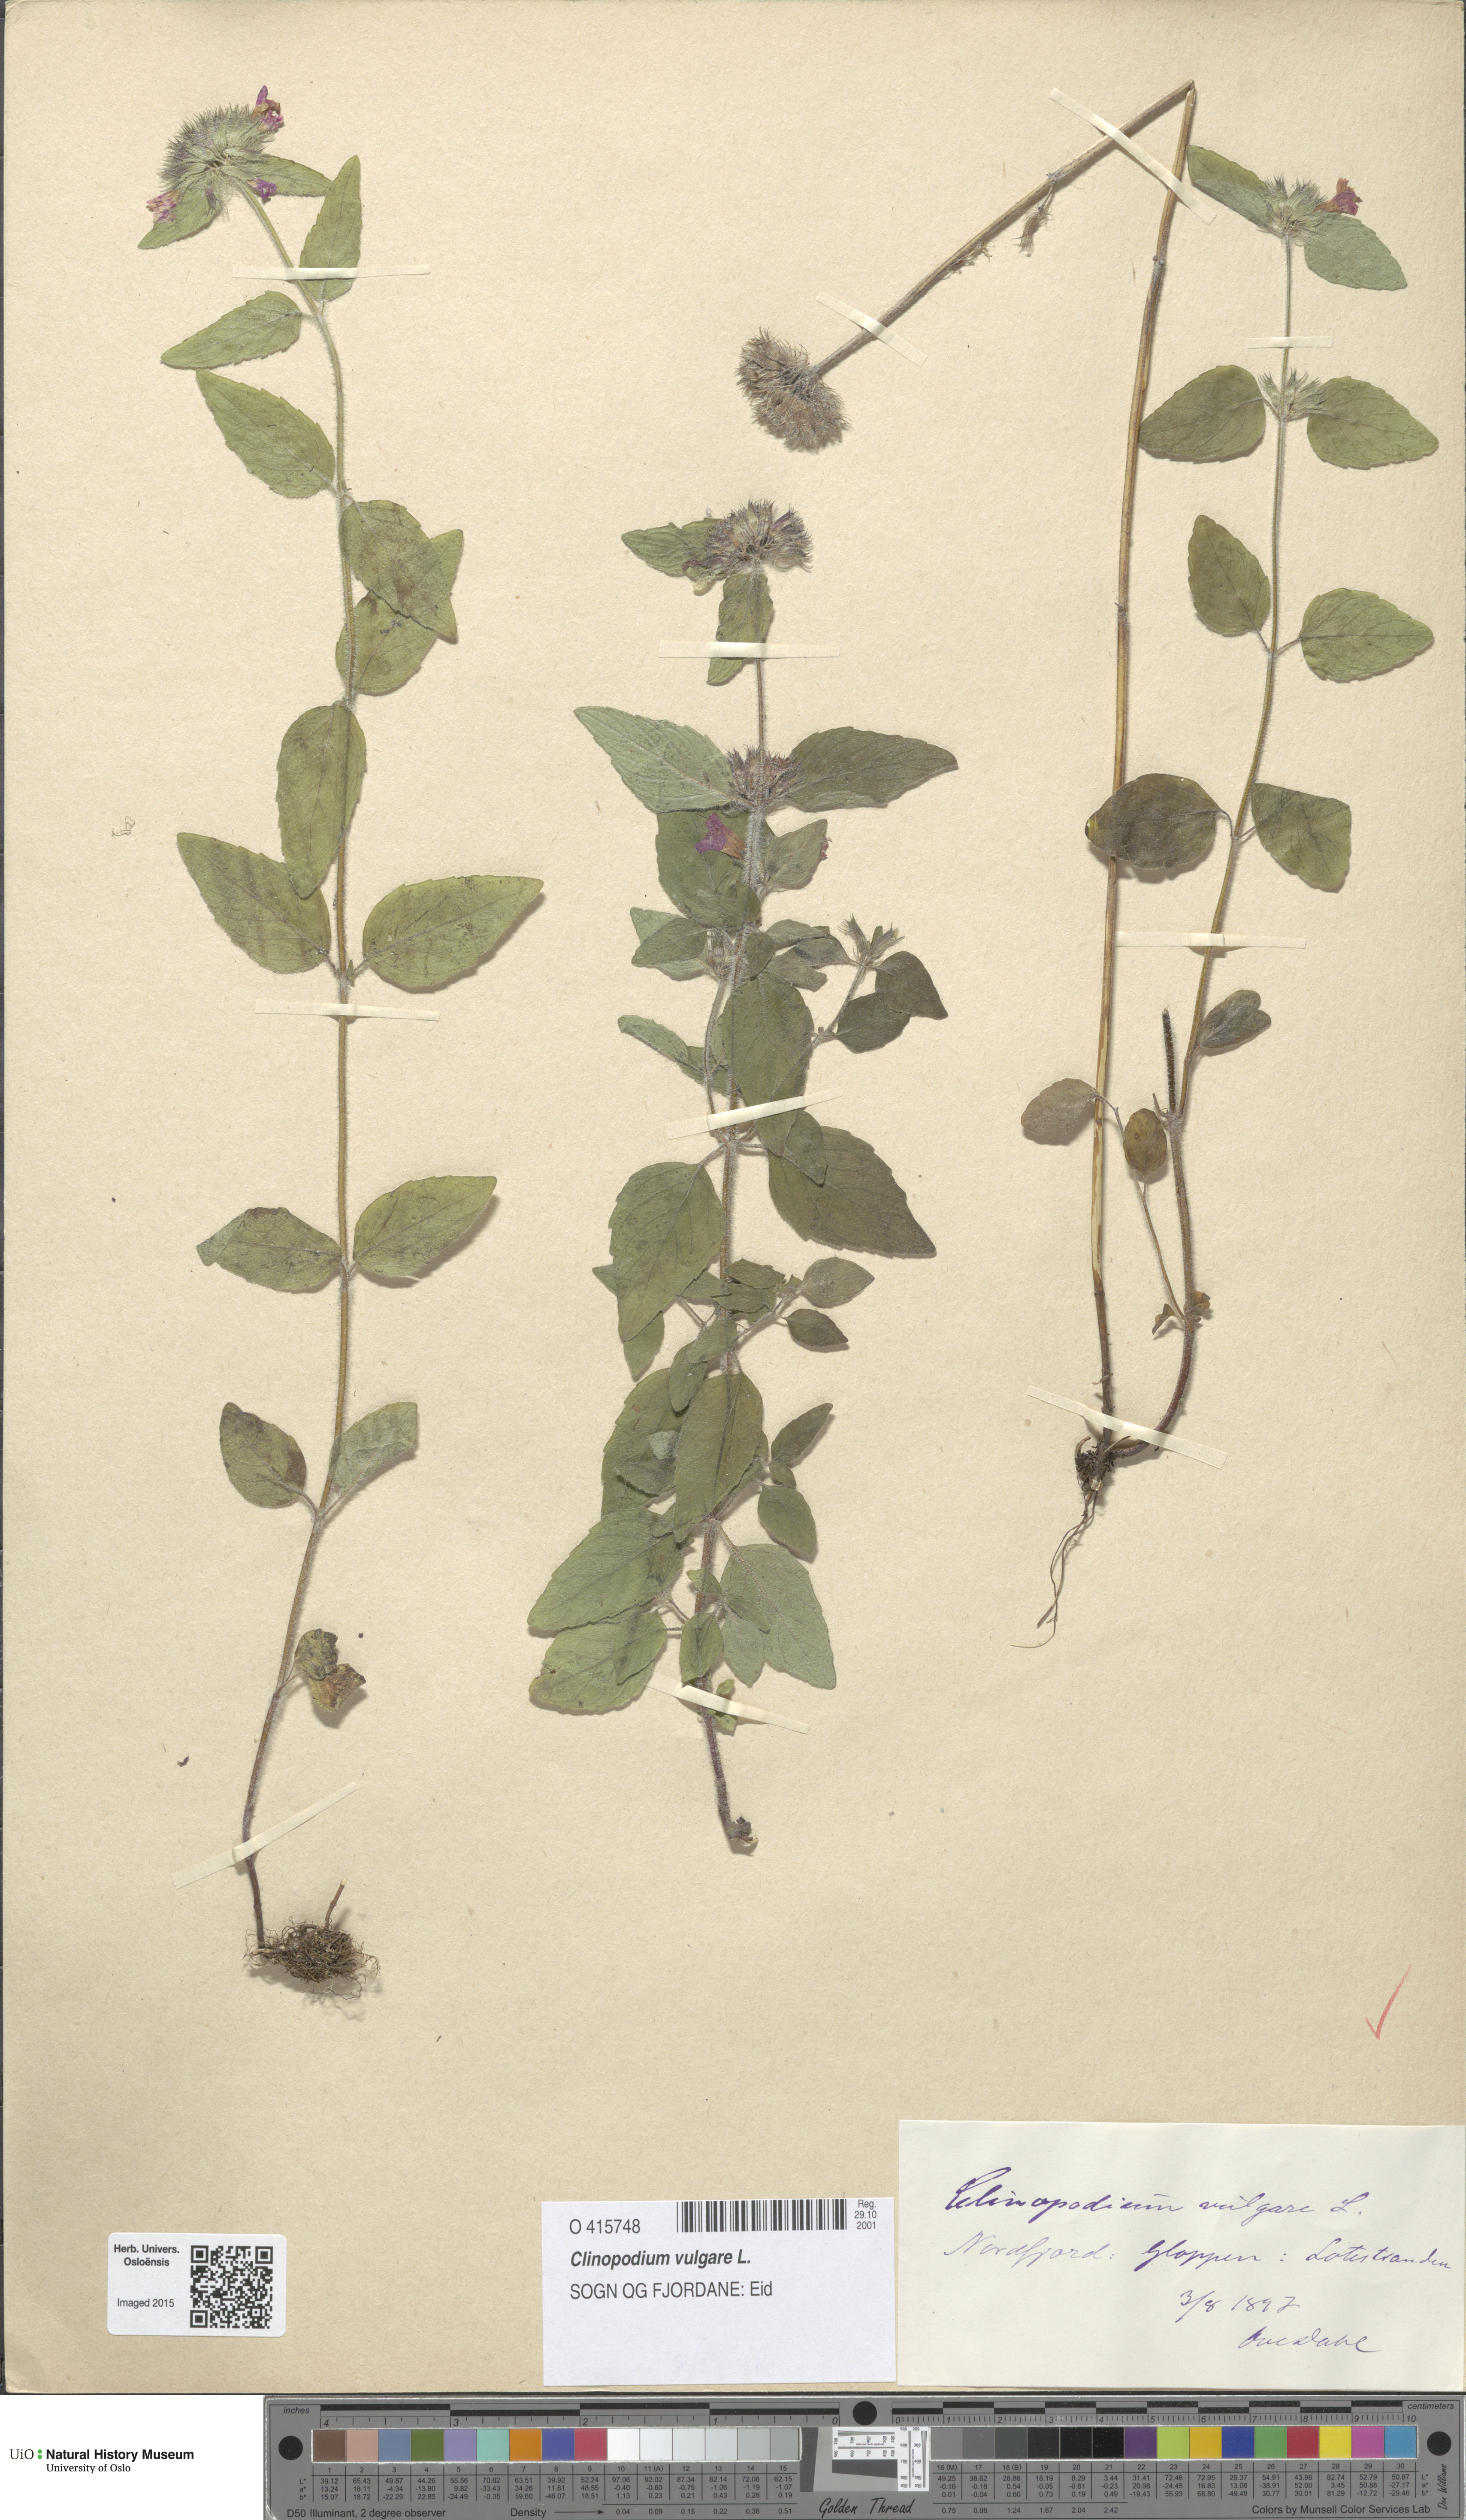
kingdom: Plantae
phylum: Tracheophyta
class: Magnoliopsida
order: Lamiales
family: Lamiaceae
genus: Clinopodium
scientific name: Clinopodium vulgare
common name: Wild basil
